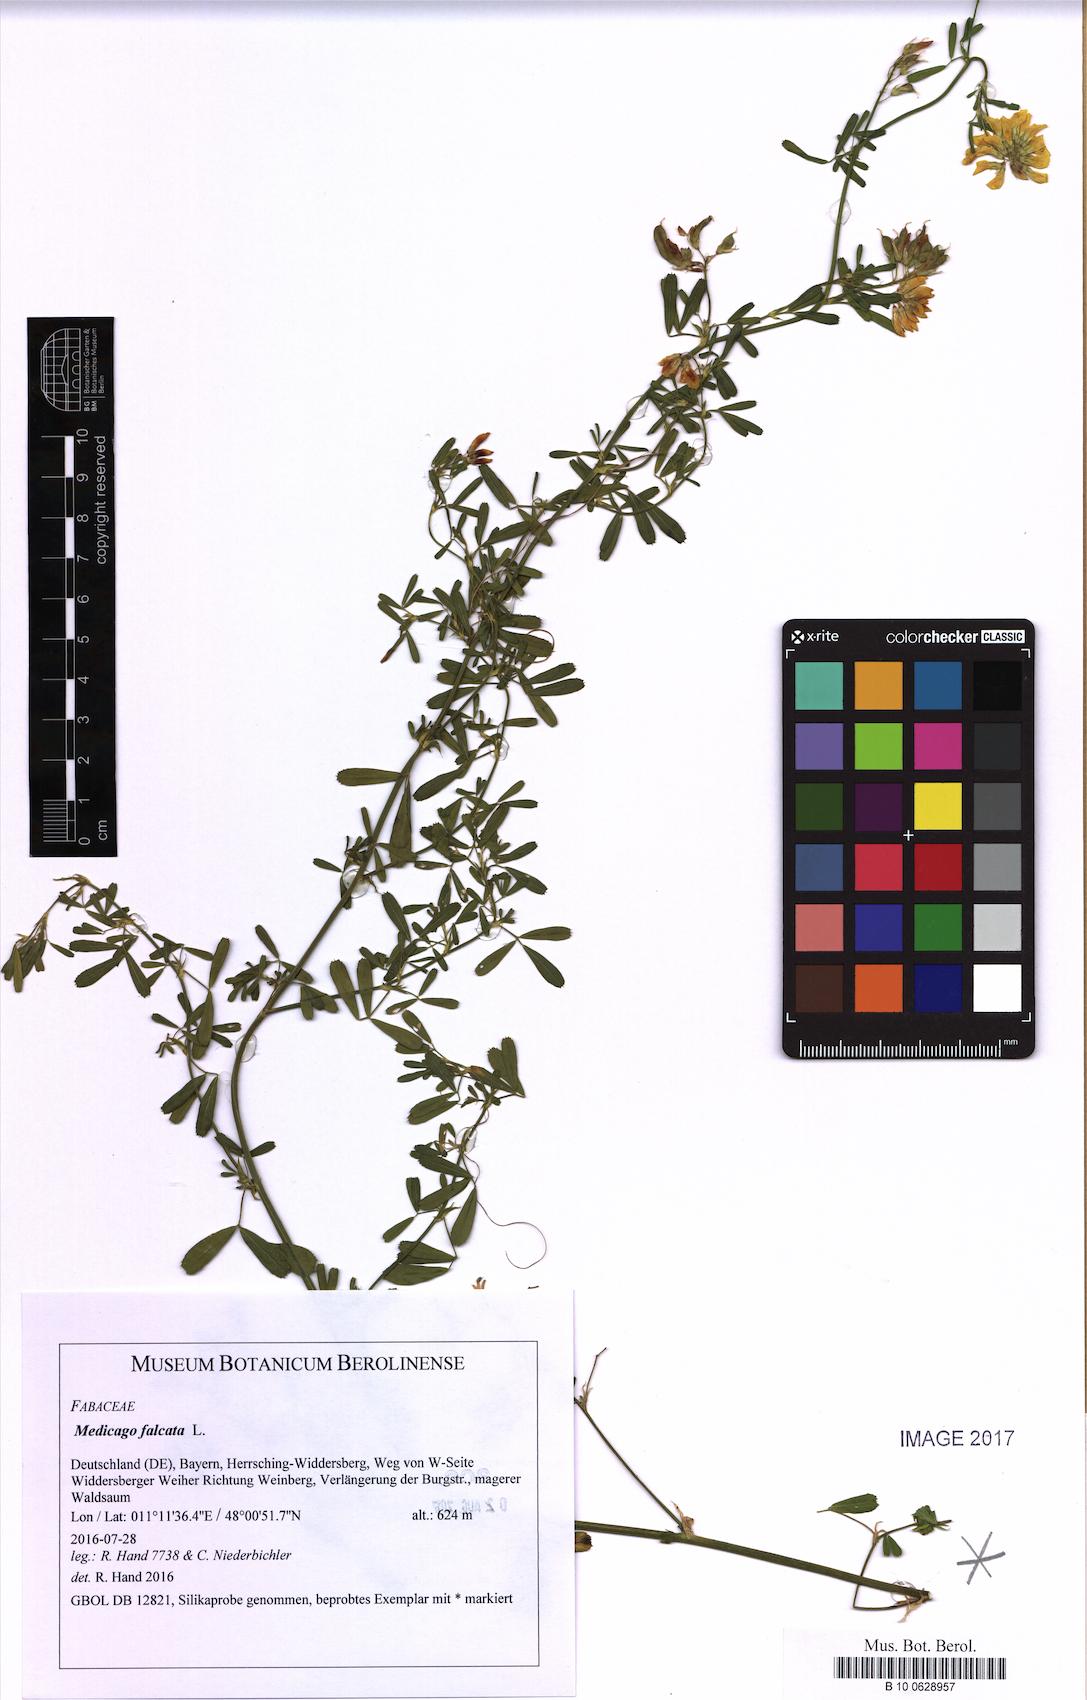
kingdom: Plantae
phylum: Tracheophyta
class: Magnoliopsida
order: Fabales
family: Fabaceae
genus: Medicago
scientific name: Medicago falcata
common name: Sickle medick
